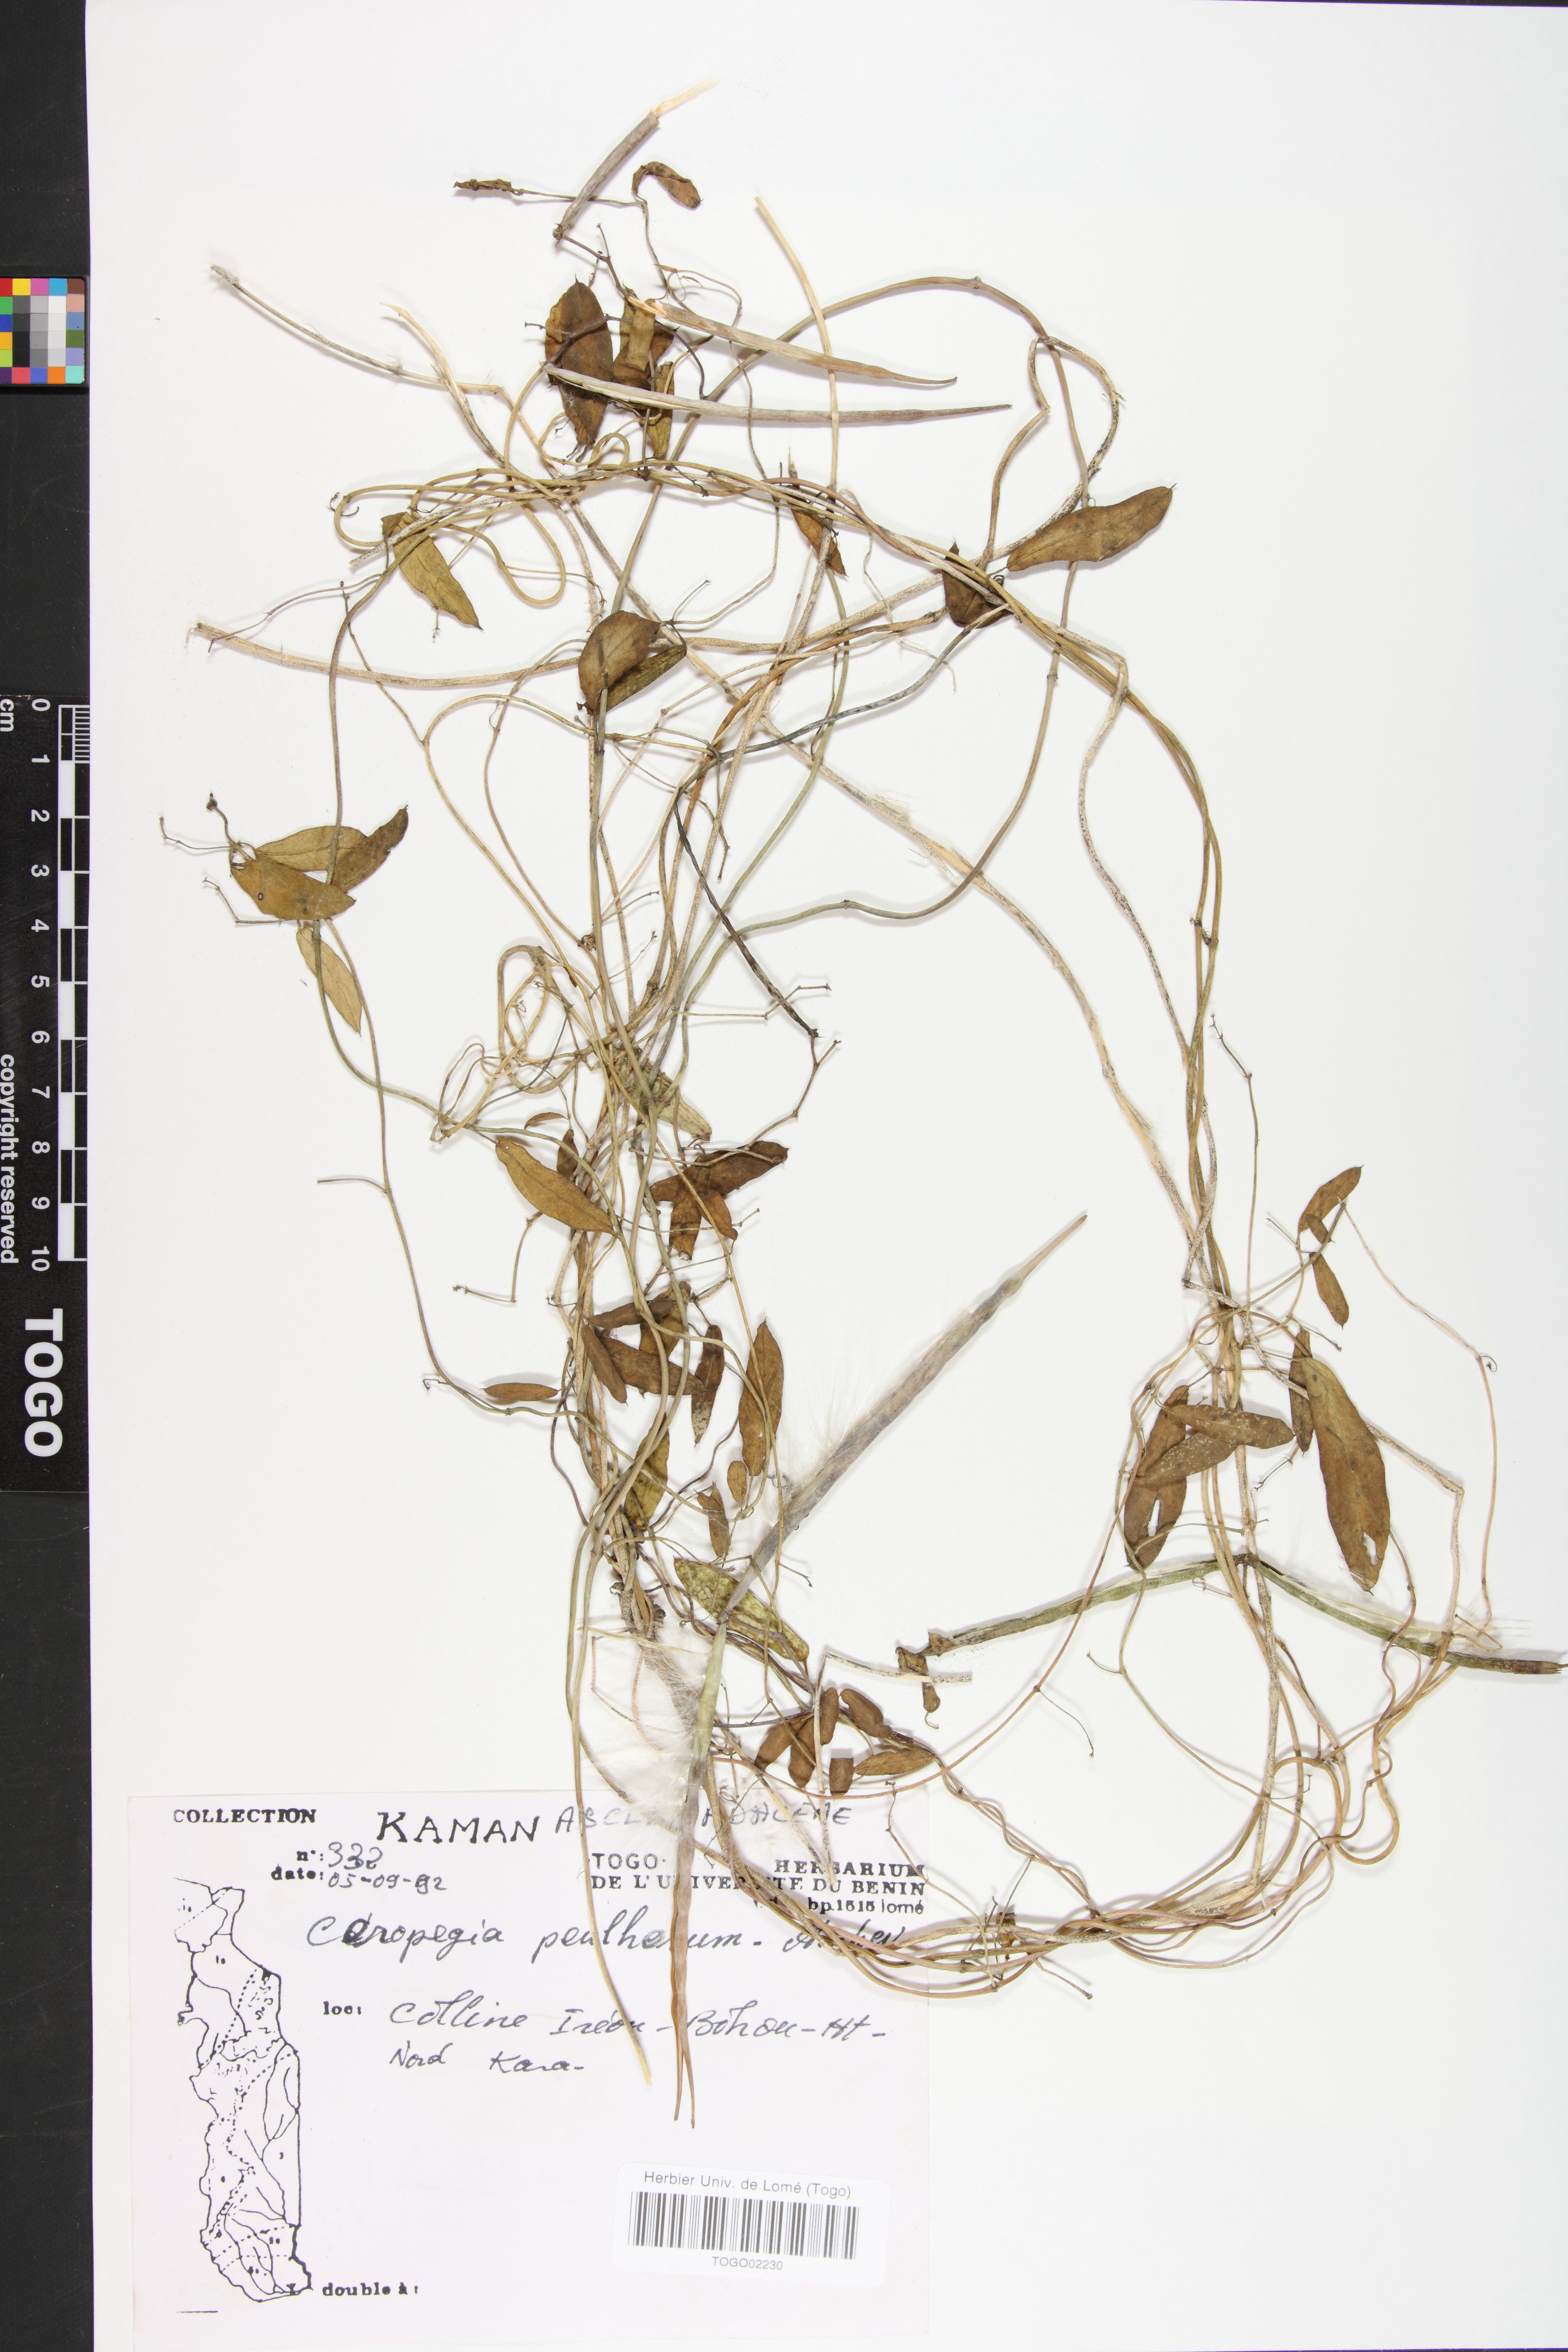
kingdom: Plantae
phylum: Tracheophyta
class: Magnoliopsida
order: Gentianales
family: Apocynaceae
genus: Ceropegia
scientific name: Ceropegia peulhorum
